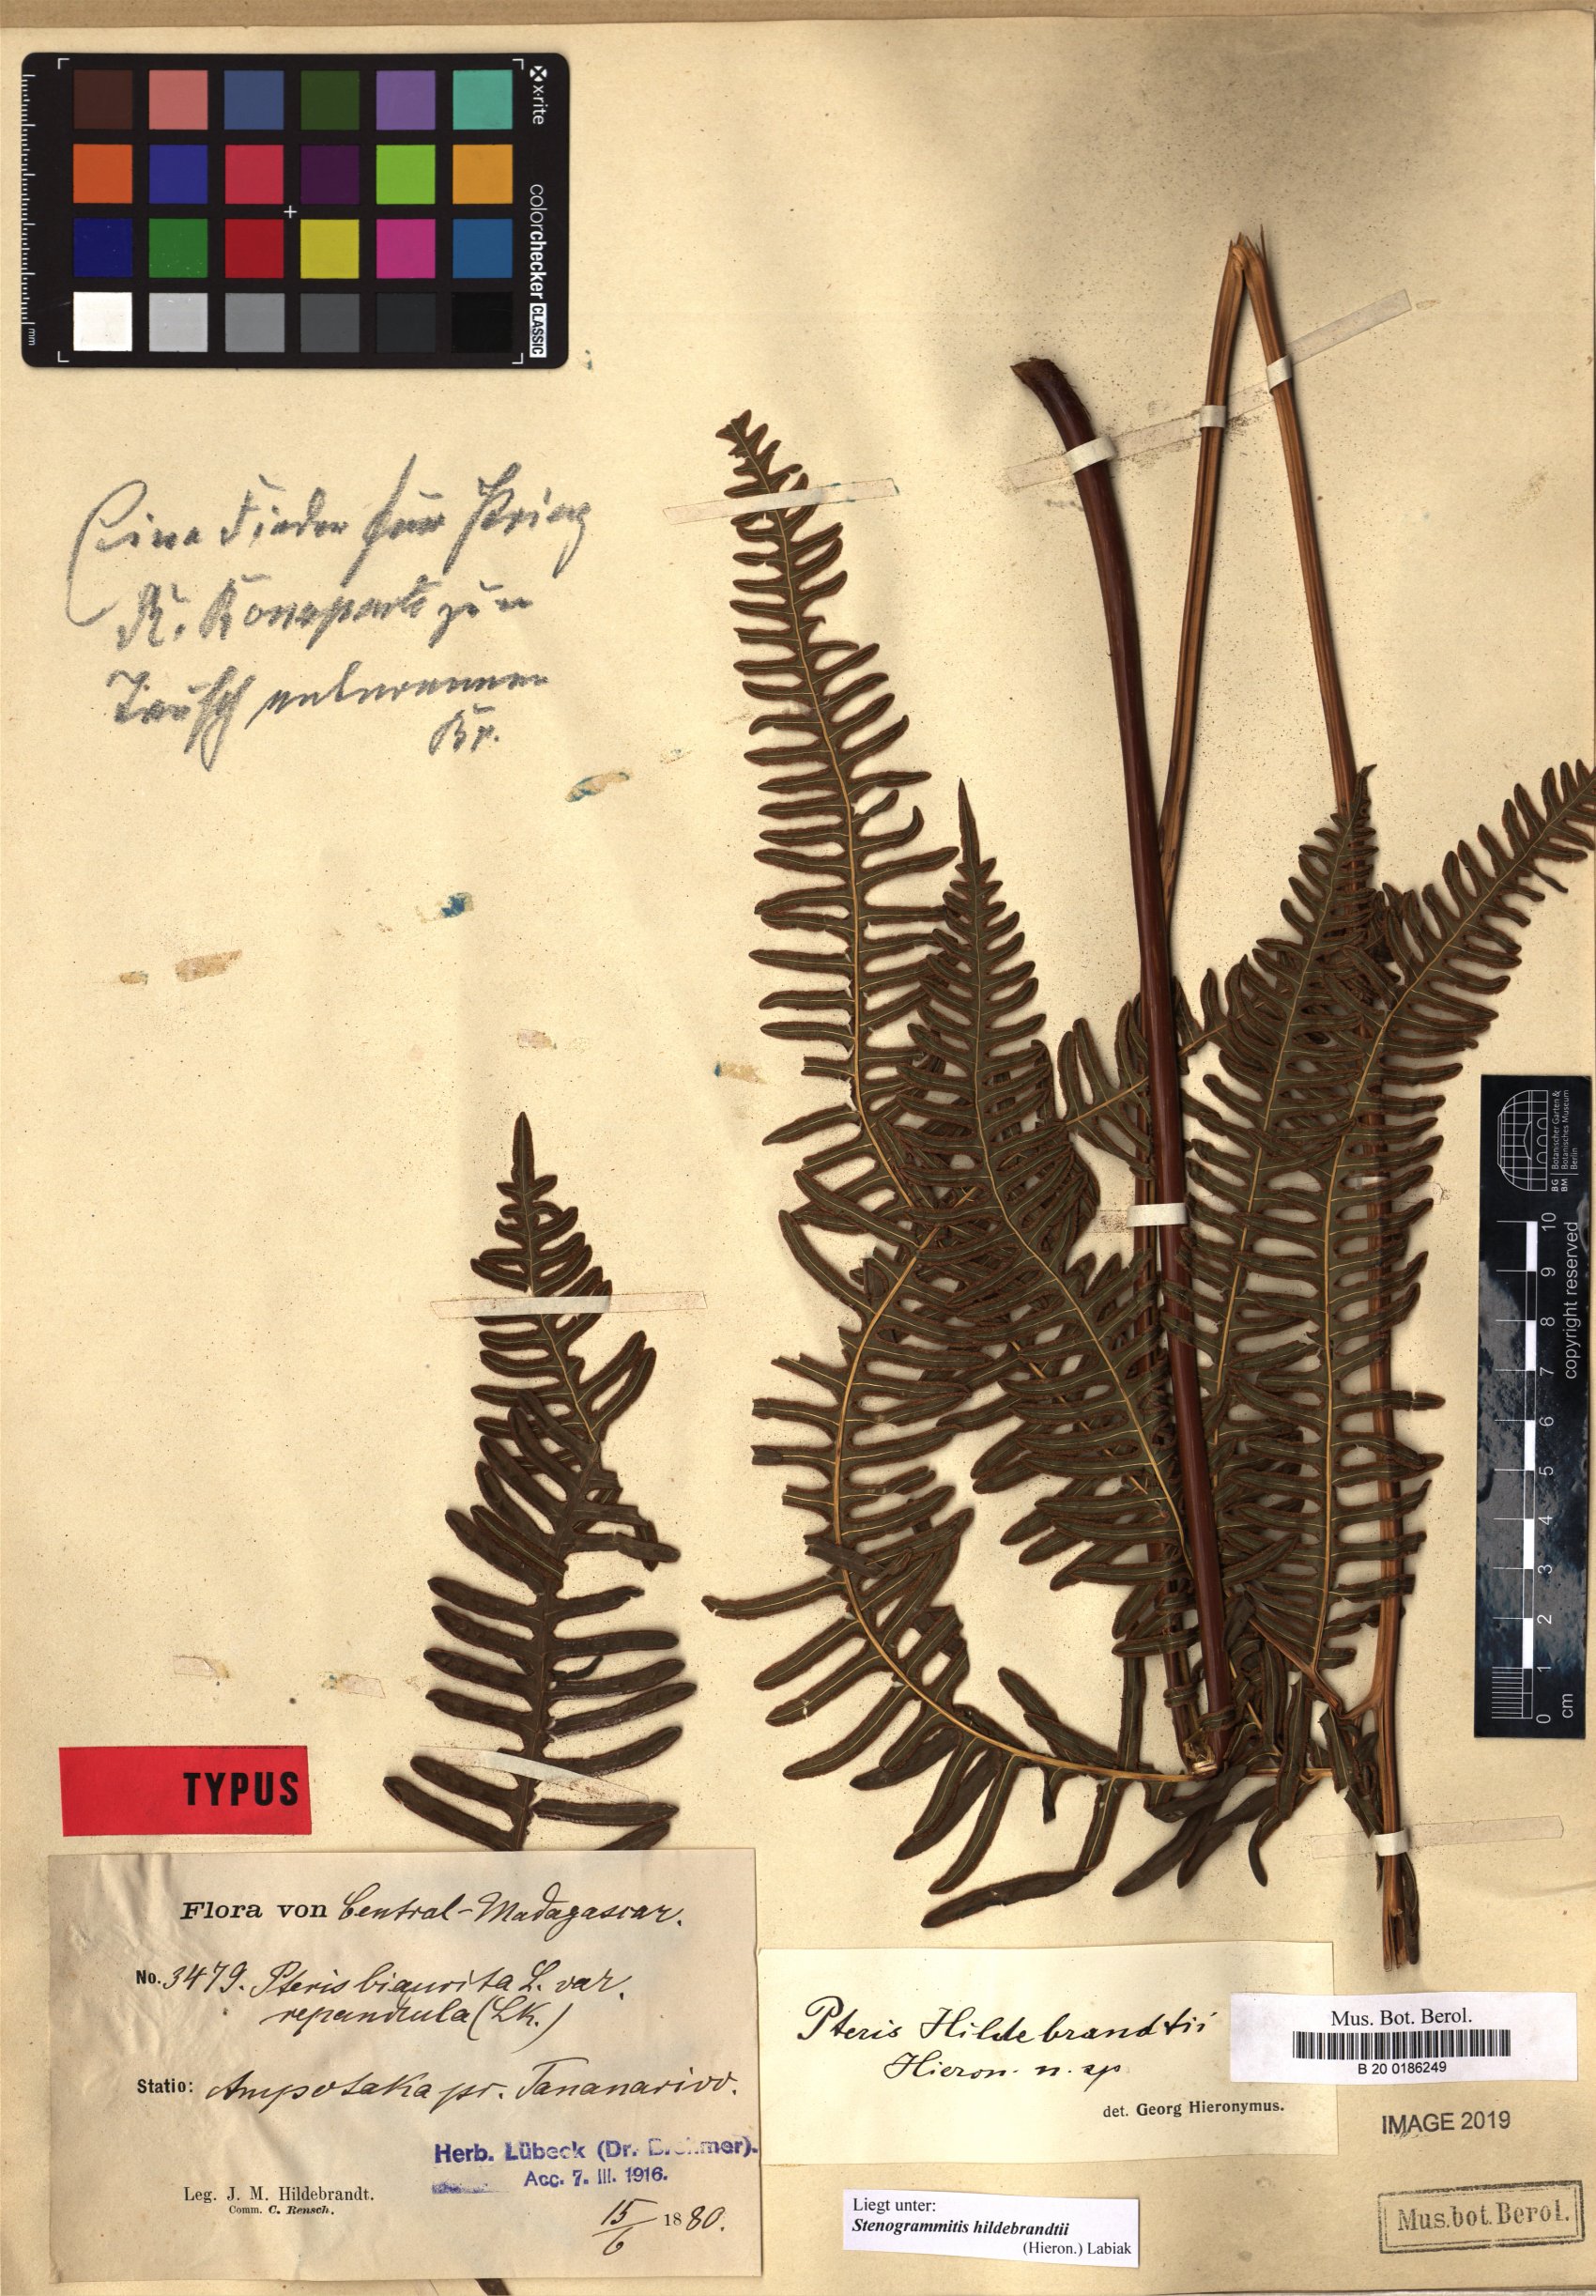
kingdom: Plantae
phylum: Tracheophyta
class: Polypodiopsida
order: Polypodiales
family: Pteridaceae
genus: Pteris
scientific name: Pteris friesii
